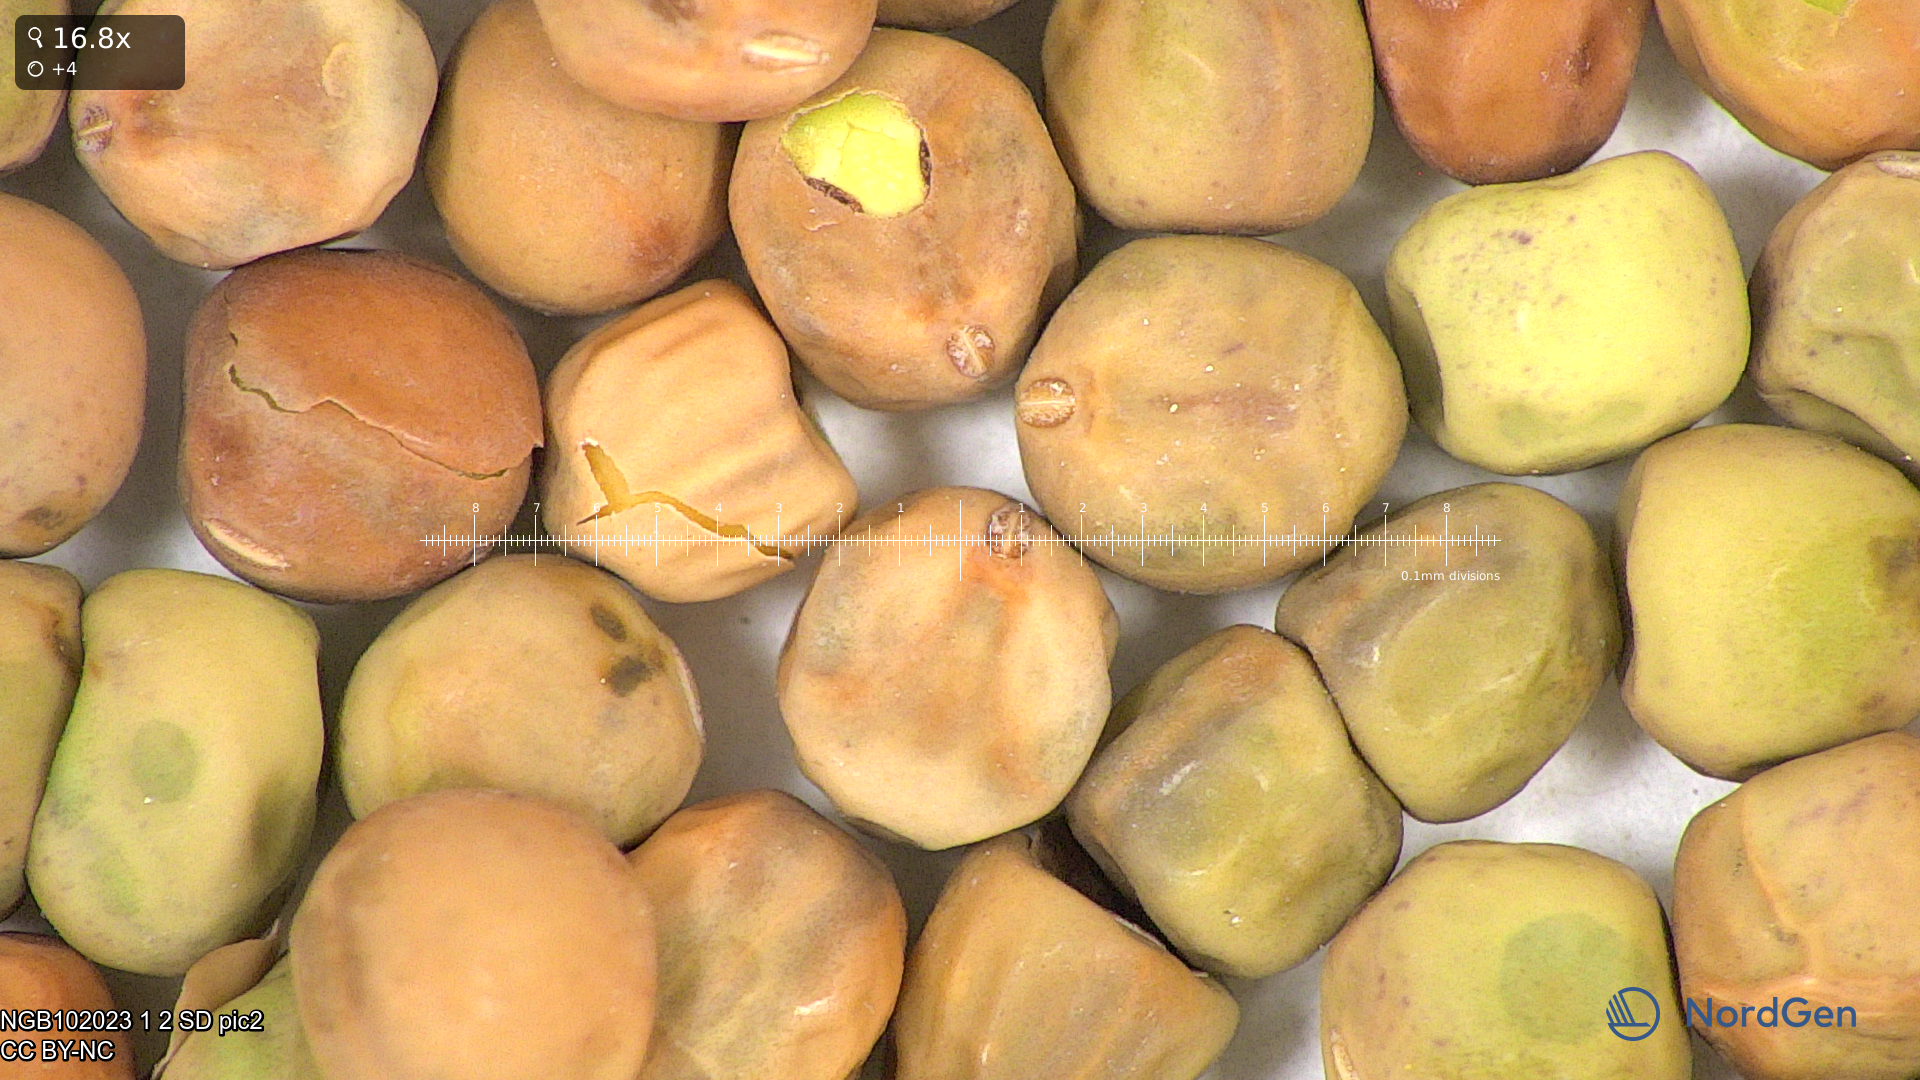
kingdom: Plantae
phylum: Tracheophyta
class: Magnoliopsida
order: Fabales
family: Fabaceae
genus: Lathyrus
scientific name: Lathyrus oleraceus
